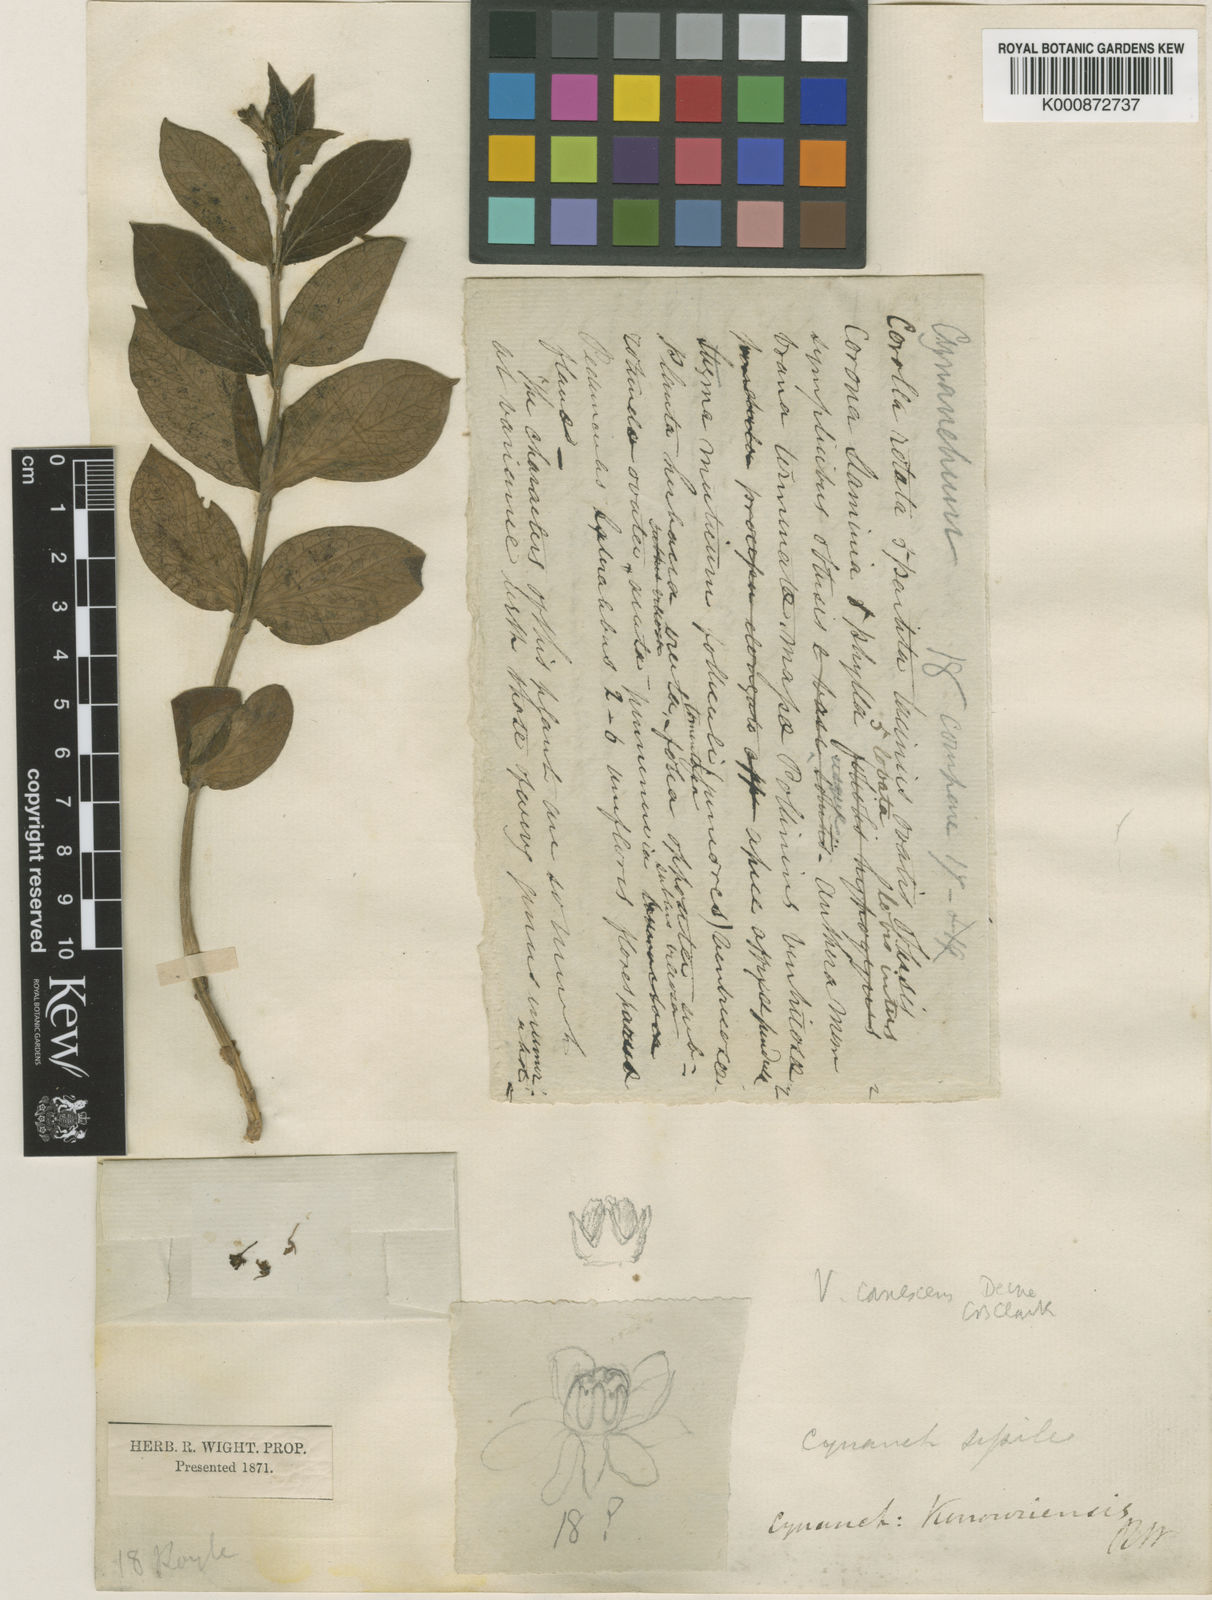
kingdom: Plantae
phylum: Tracheophyta
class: Magnoliopsida
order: Gentianales
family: Apocynaceae
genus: Vincetoxicum
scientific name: Vincetoxicum hirundinaria
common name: White swallowwort
